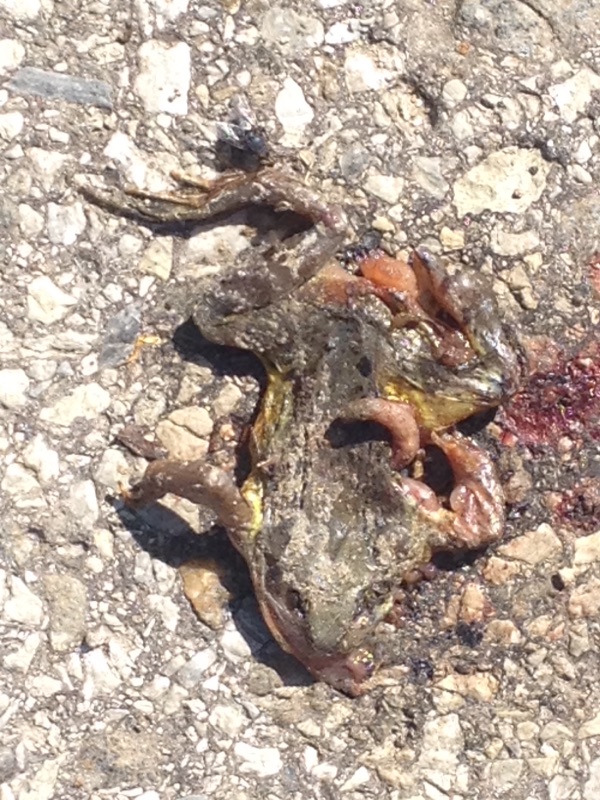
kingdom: Animalia
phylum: Chordata
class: Amphibia
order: Anura
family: Ranidae
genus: Rana
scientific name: Rana temporaria
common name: Common frog
